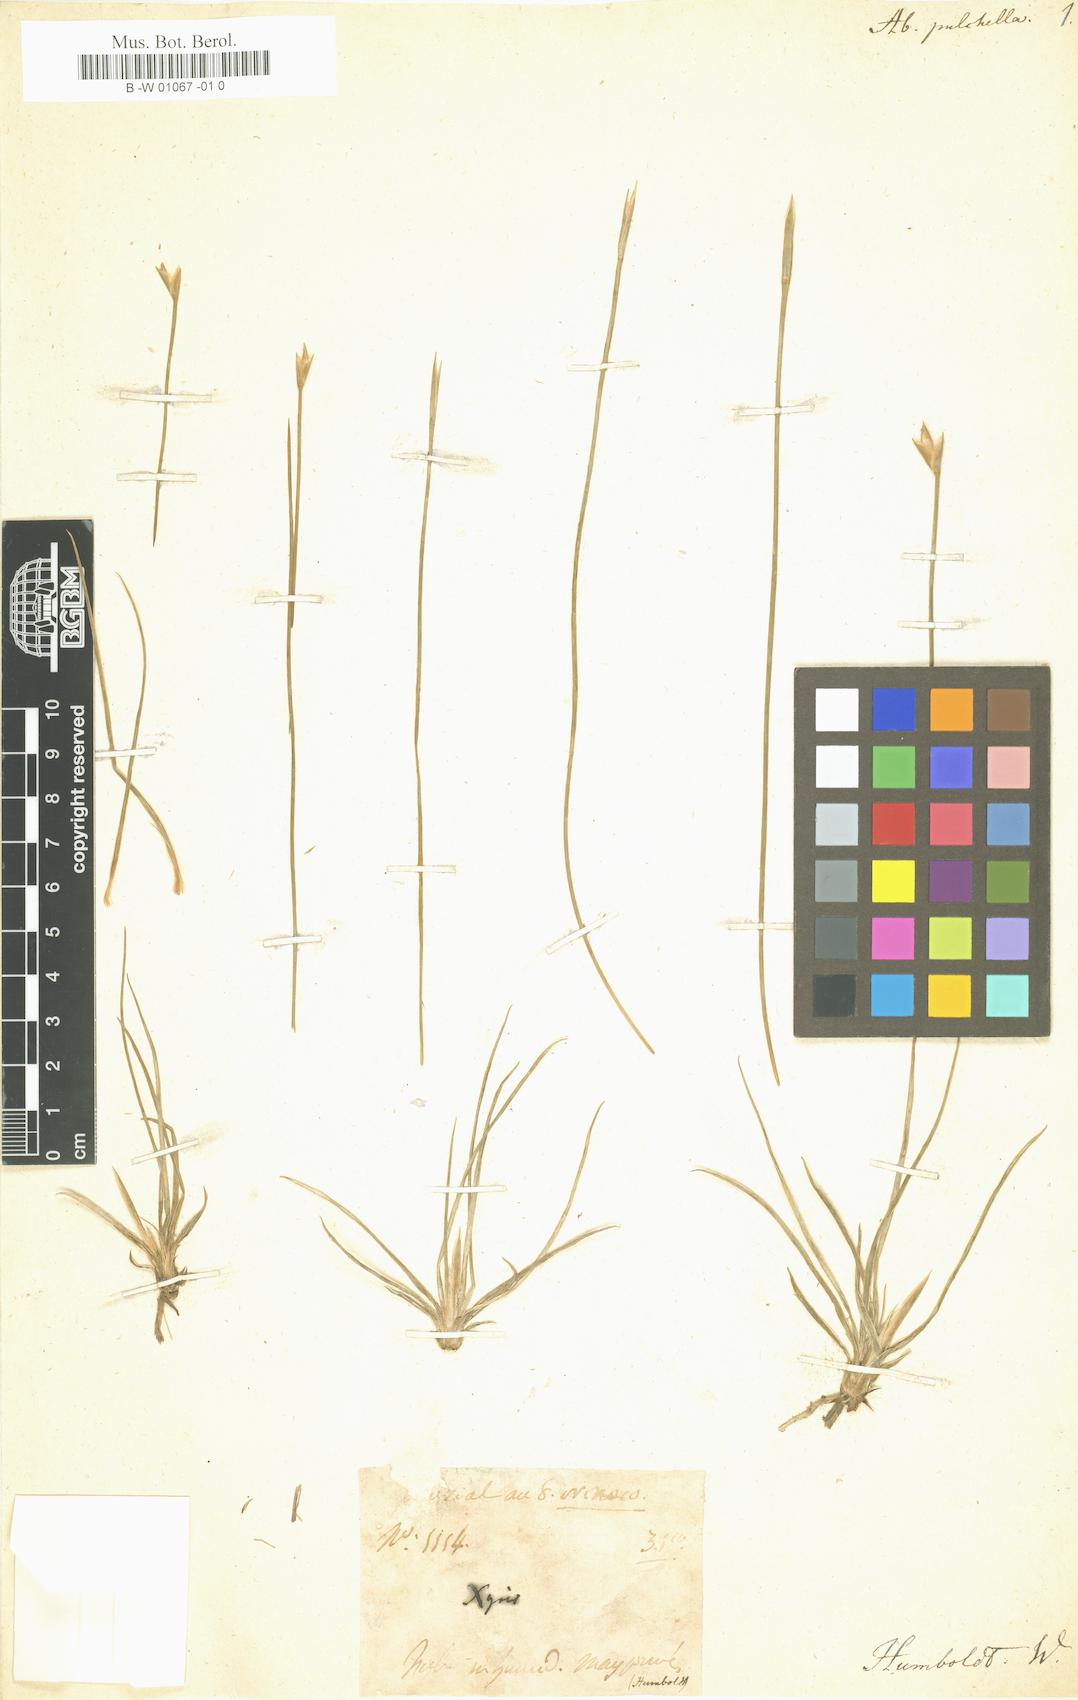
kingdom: Plantae
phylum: Tracheophyta
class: Liliopsida
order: Poales
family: Xyridaceae
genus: Abolboda
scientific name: Abolboda pulchella
